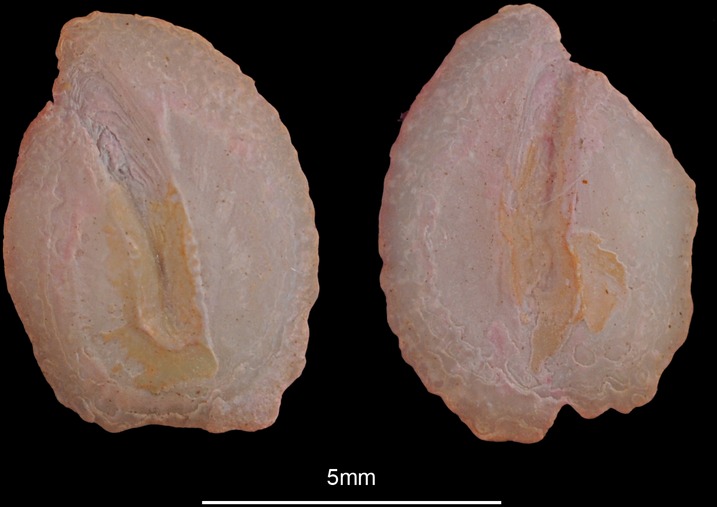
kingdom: Animalia
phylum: Chordata
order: Pleuronectiformes
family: Scophthalmidae
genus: Scophthalmus
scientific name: Scophthalmus rhombus
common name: Brill
